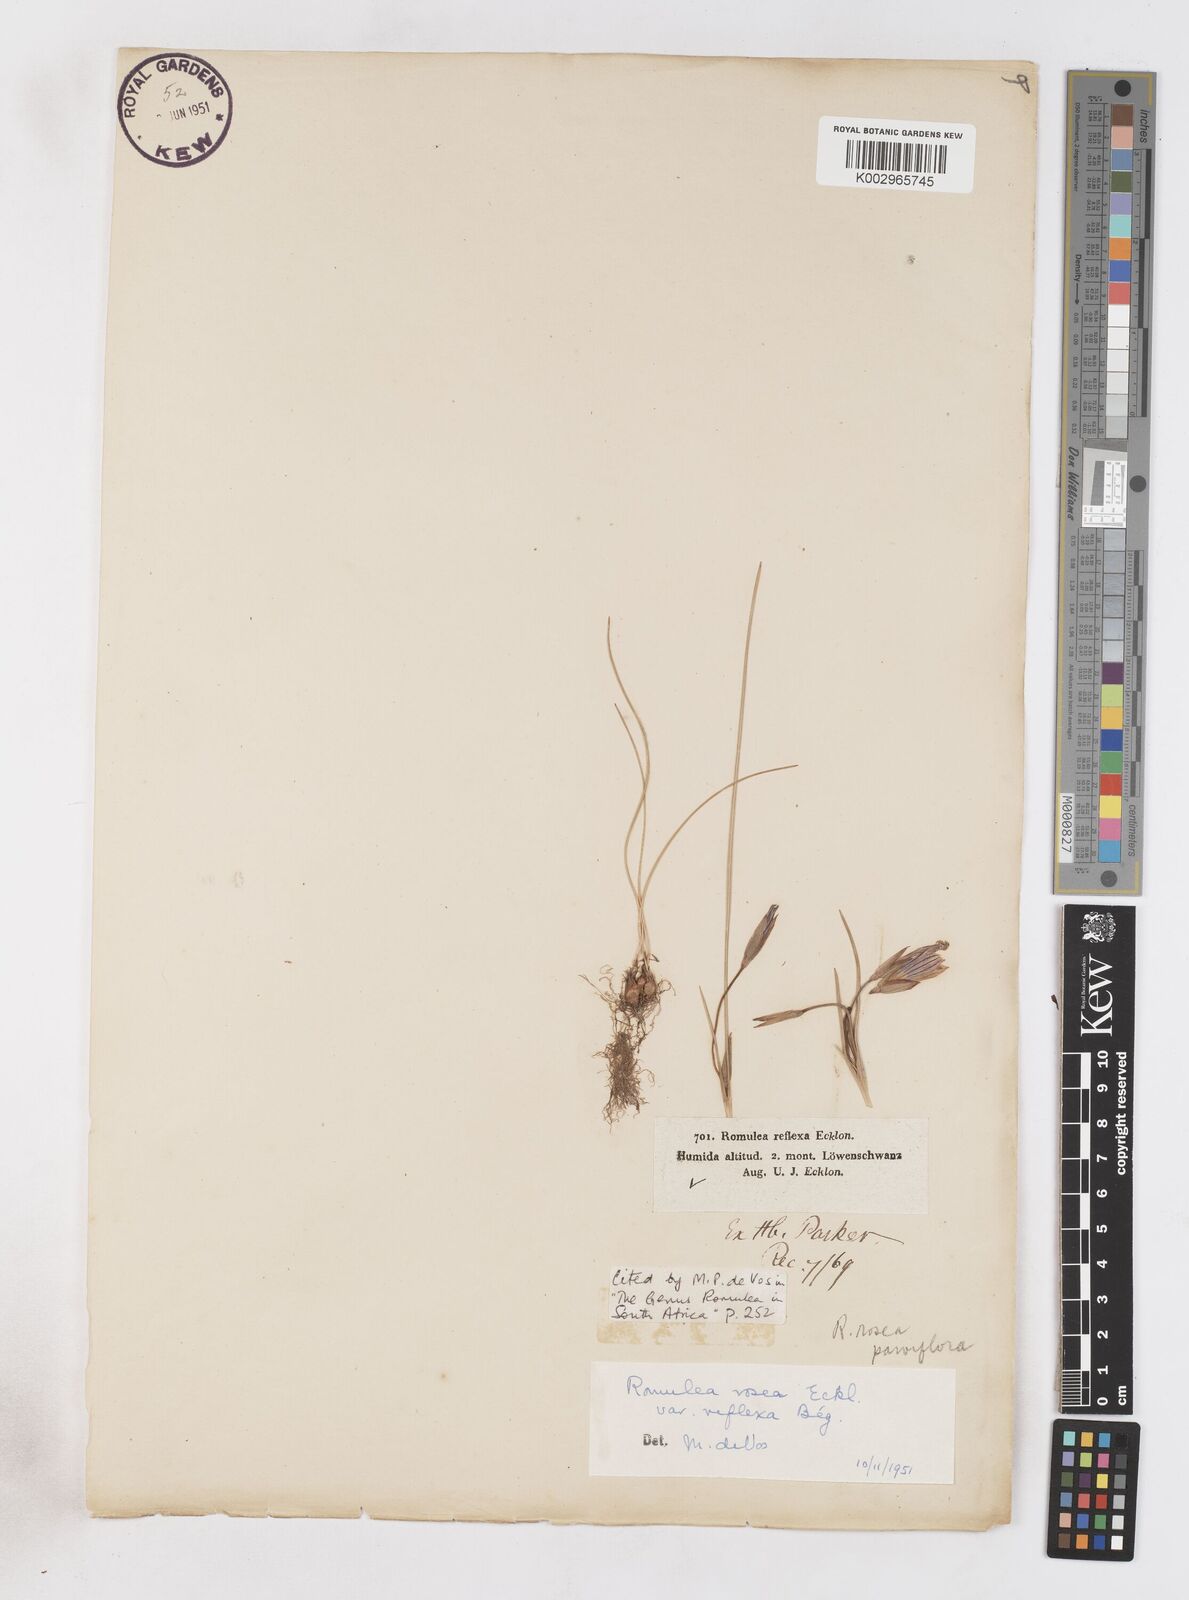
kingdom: Plantae
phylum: Tracheophyta
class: Liliopsida
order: Asparagales
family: Iridaceae
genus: Romulea
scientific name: Romulea rosea
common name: Oniongrass
